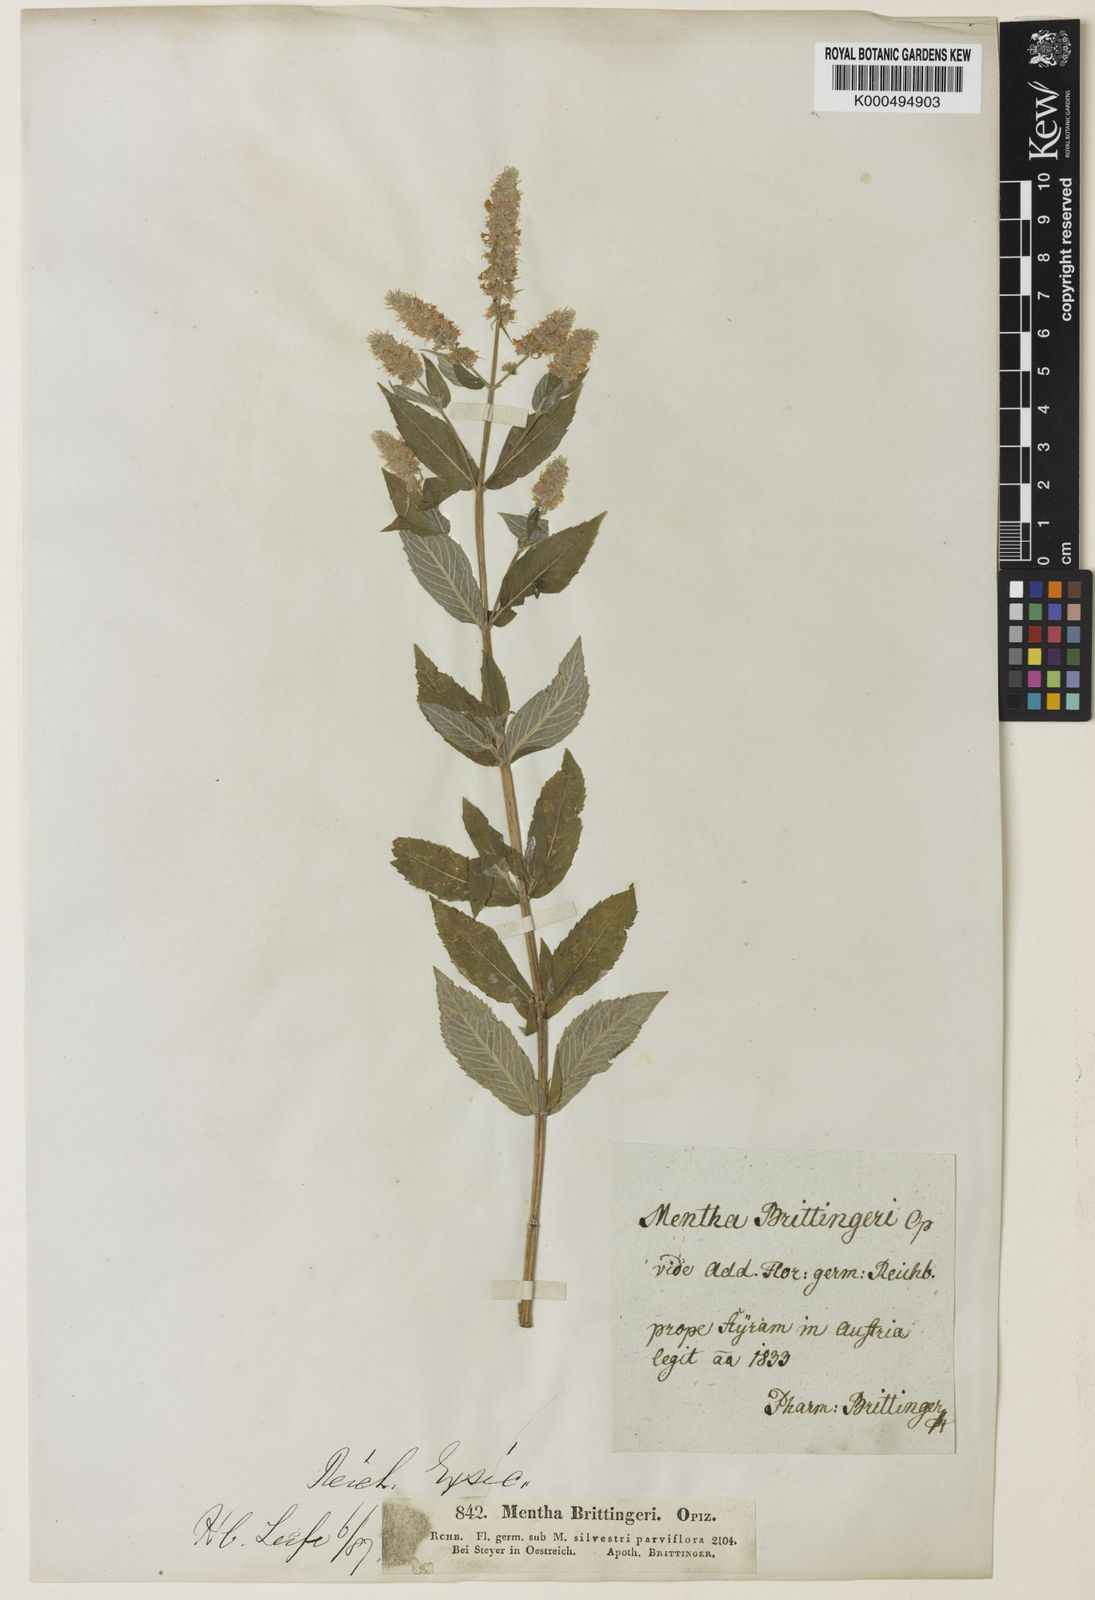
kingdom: Plantae
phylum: Tracheophyta
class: Magnoliopsida
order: Lamiales
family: Lamiaceae
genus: Mentha
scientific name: Mentha
